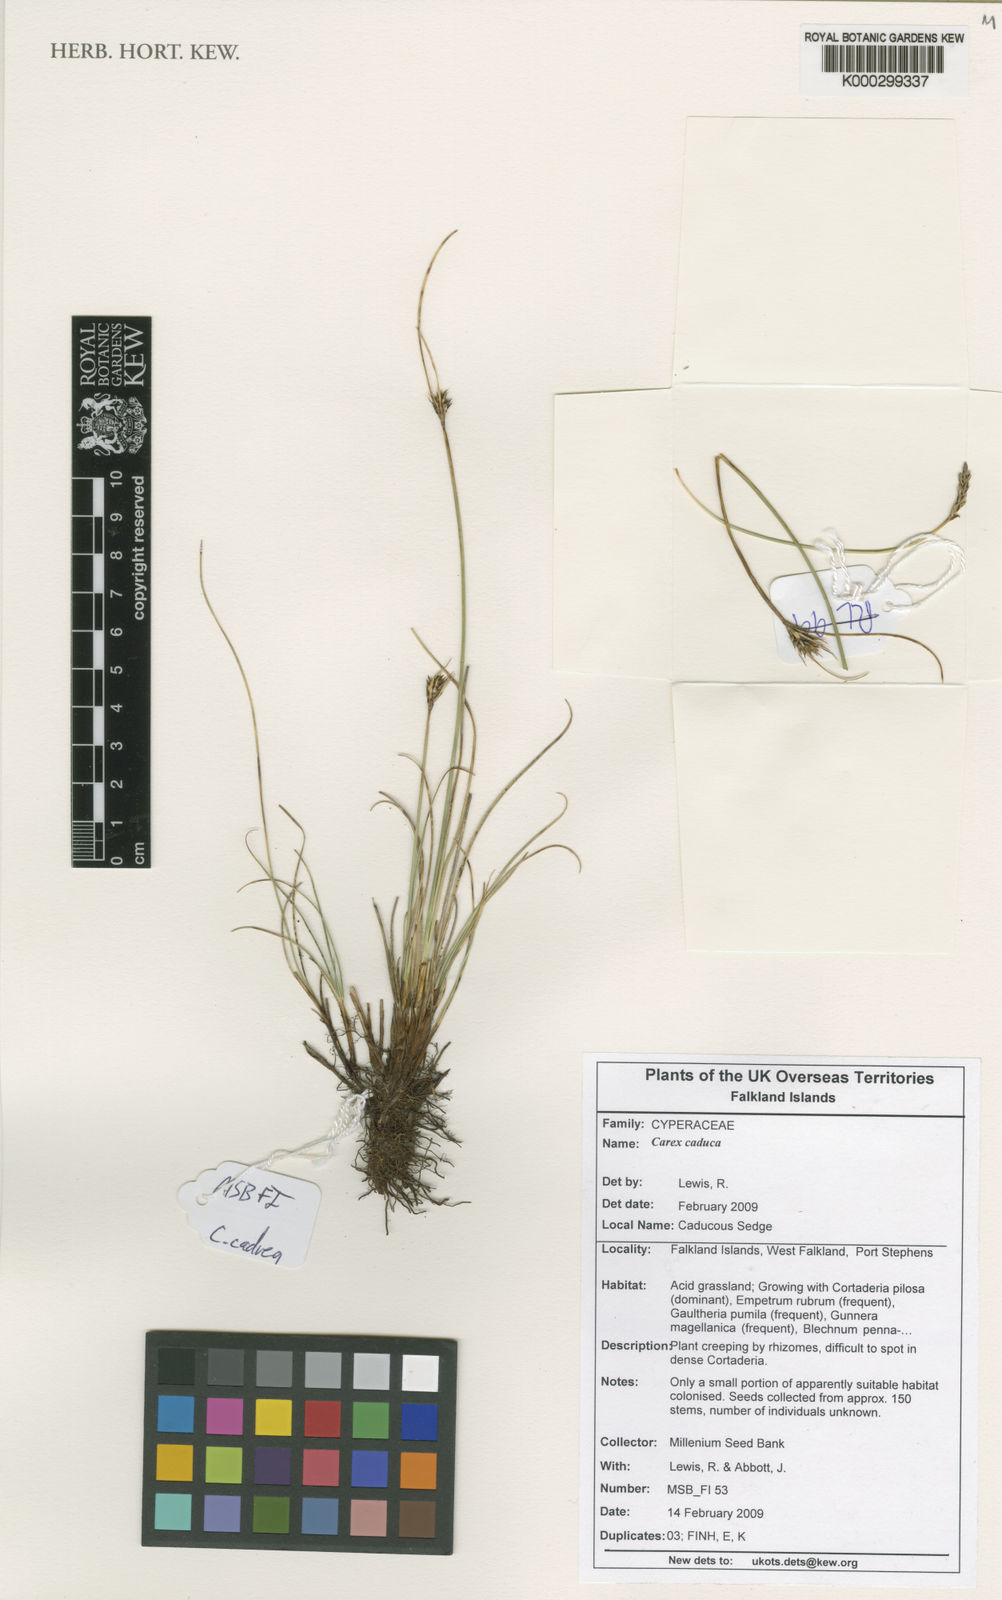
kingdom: Plantae
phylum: Tracheophyta
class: Liliopsida
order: Poales
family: Cyperaceae
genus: Carex
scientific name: Carex caduca
